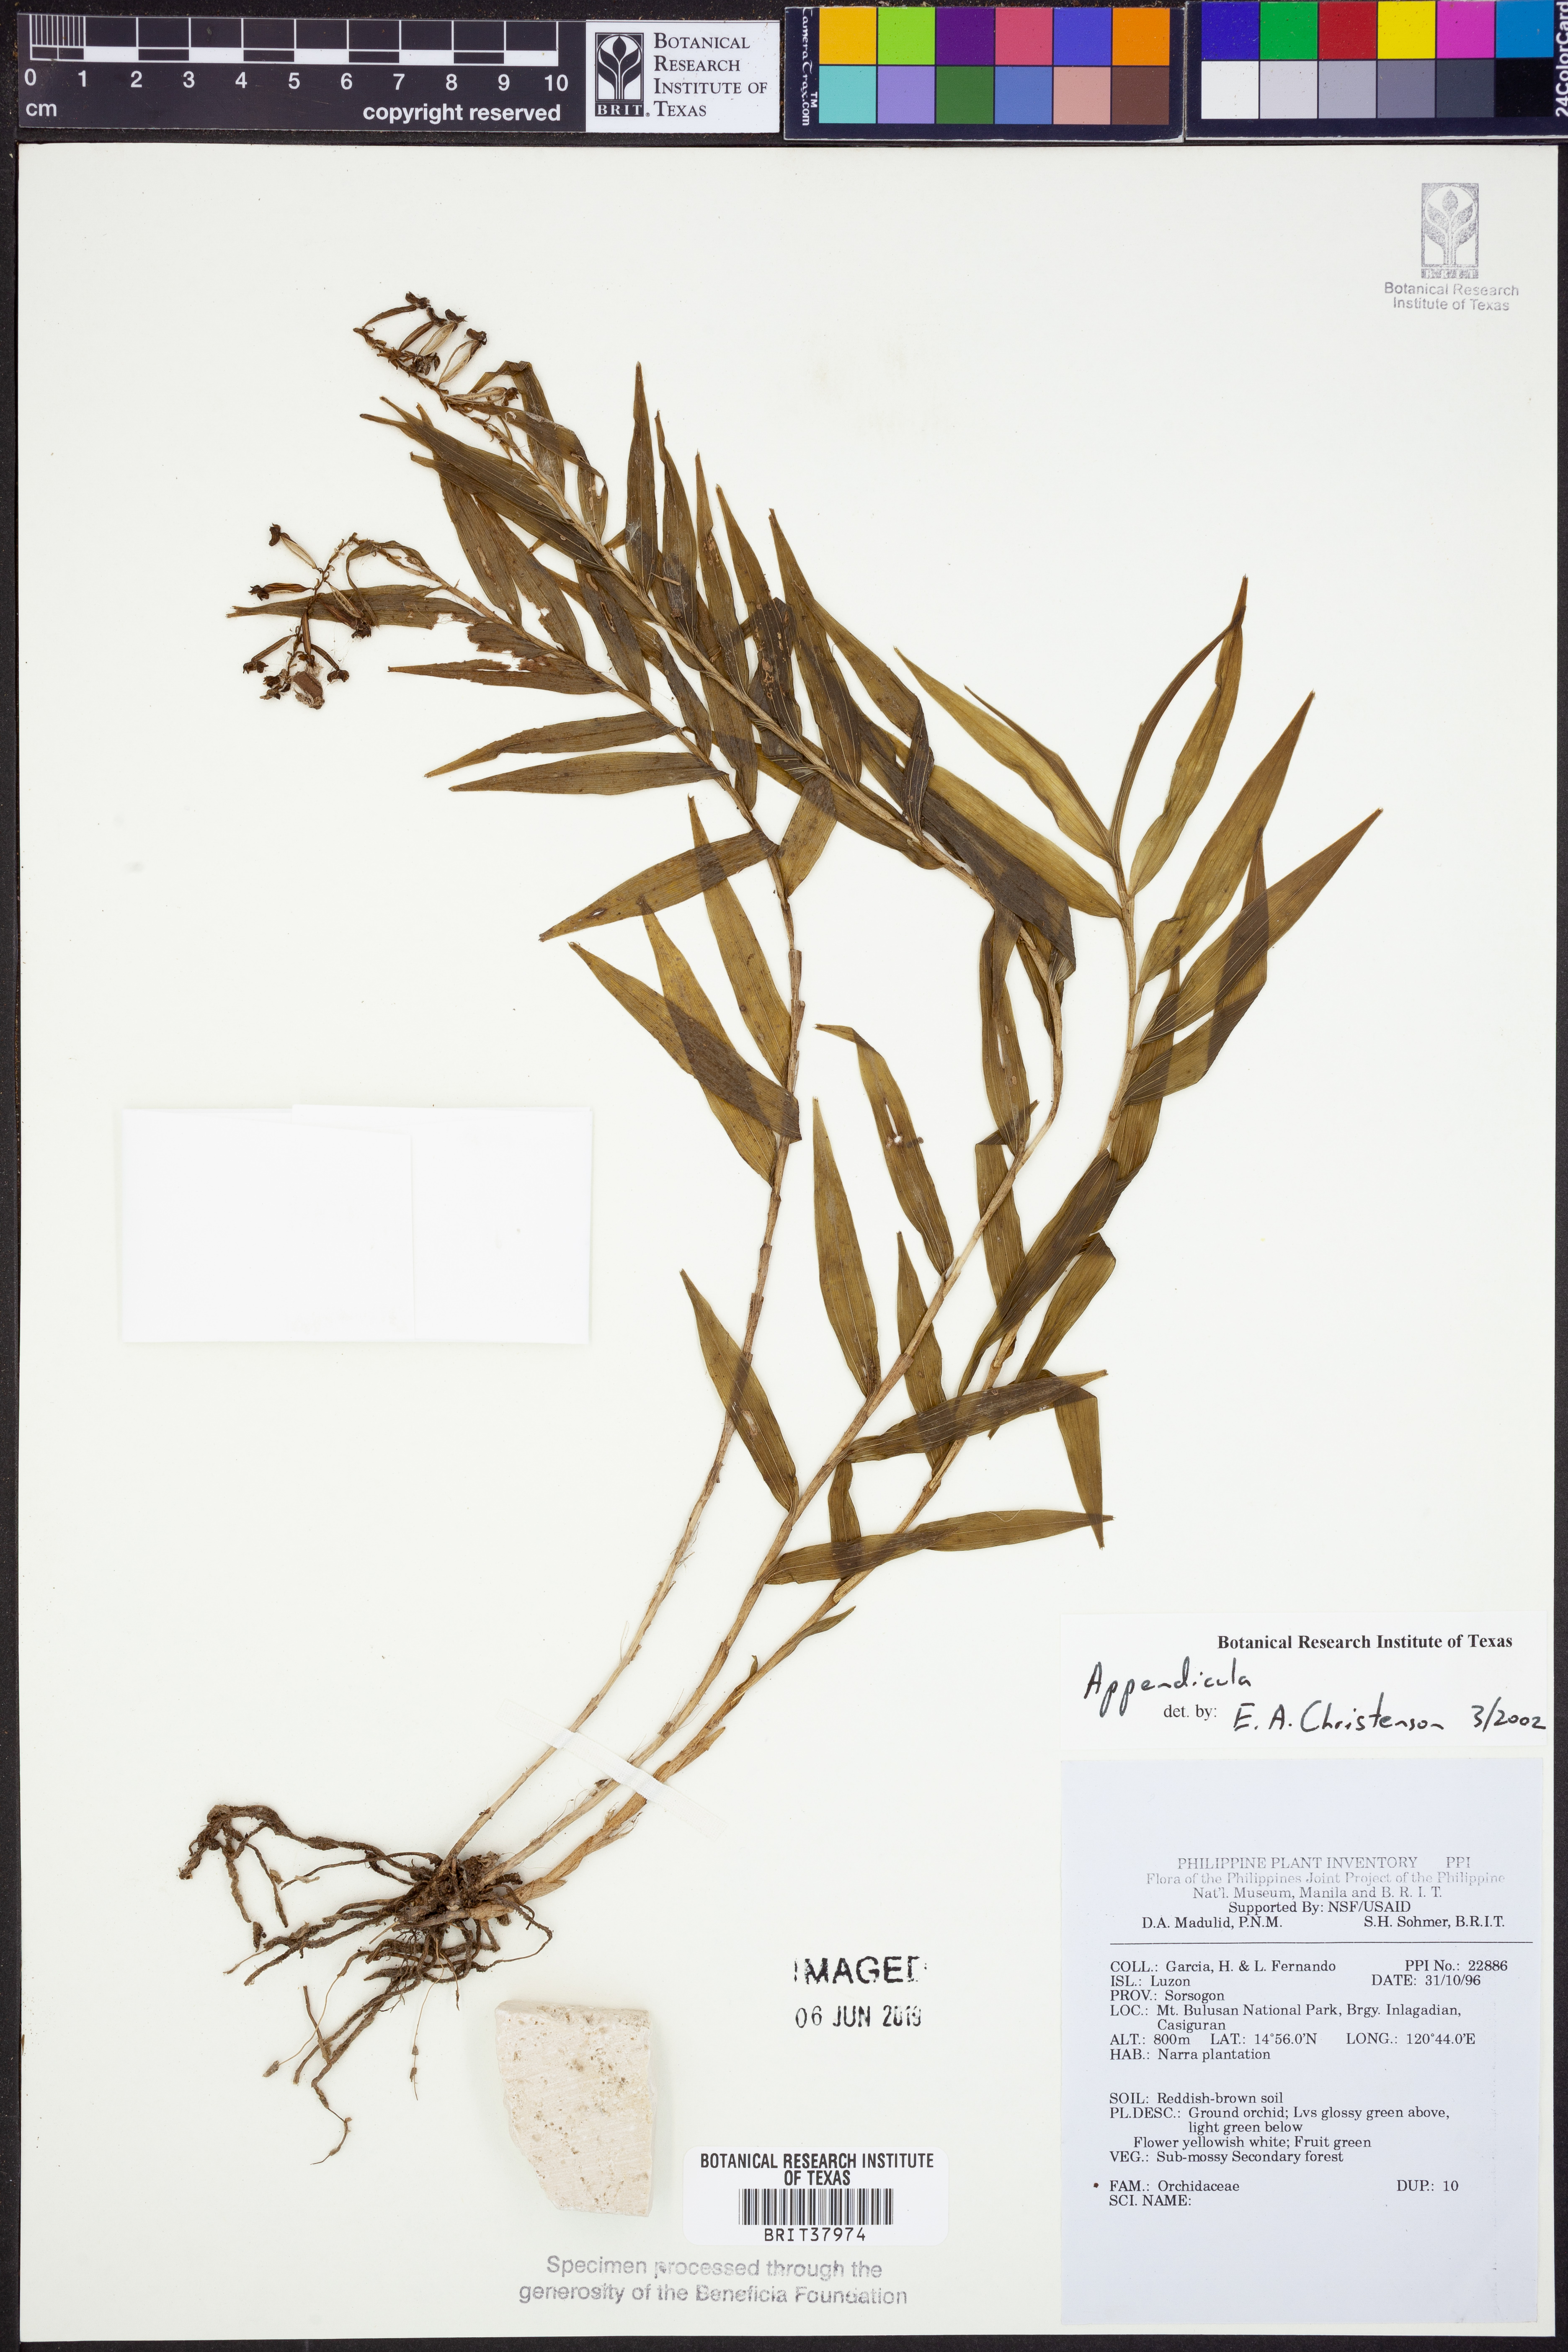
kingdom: Plantae
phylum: Tracheophyta
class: Liliopsida
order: Asparagales
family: Orchidaceae
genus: Appendicula
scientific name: Appendicula
